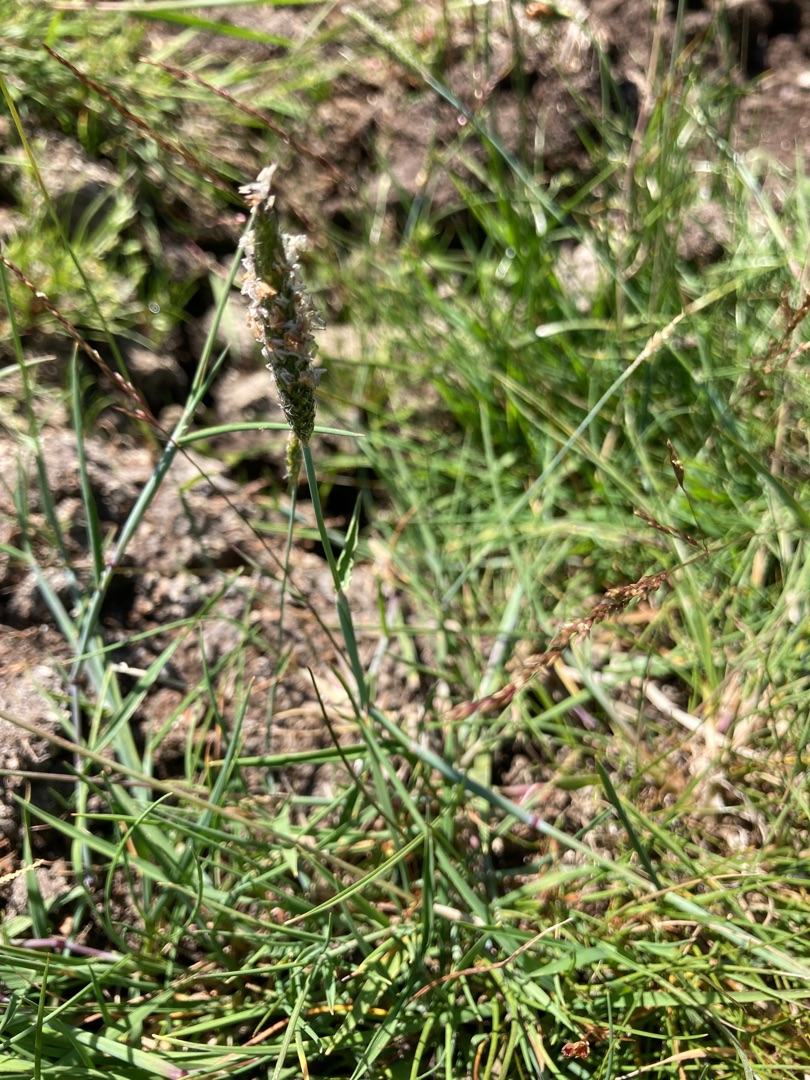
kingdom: Plantae
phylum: Tracheophyta
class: Liliopsida
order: Poales
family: Poaceae
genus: Alopecurus
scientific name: Alopecurus geniculatus
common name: Knæbøjet rævehale
